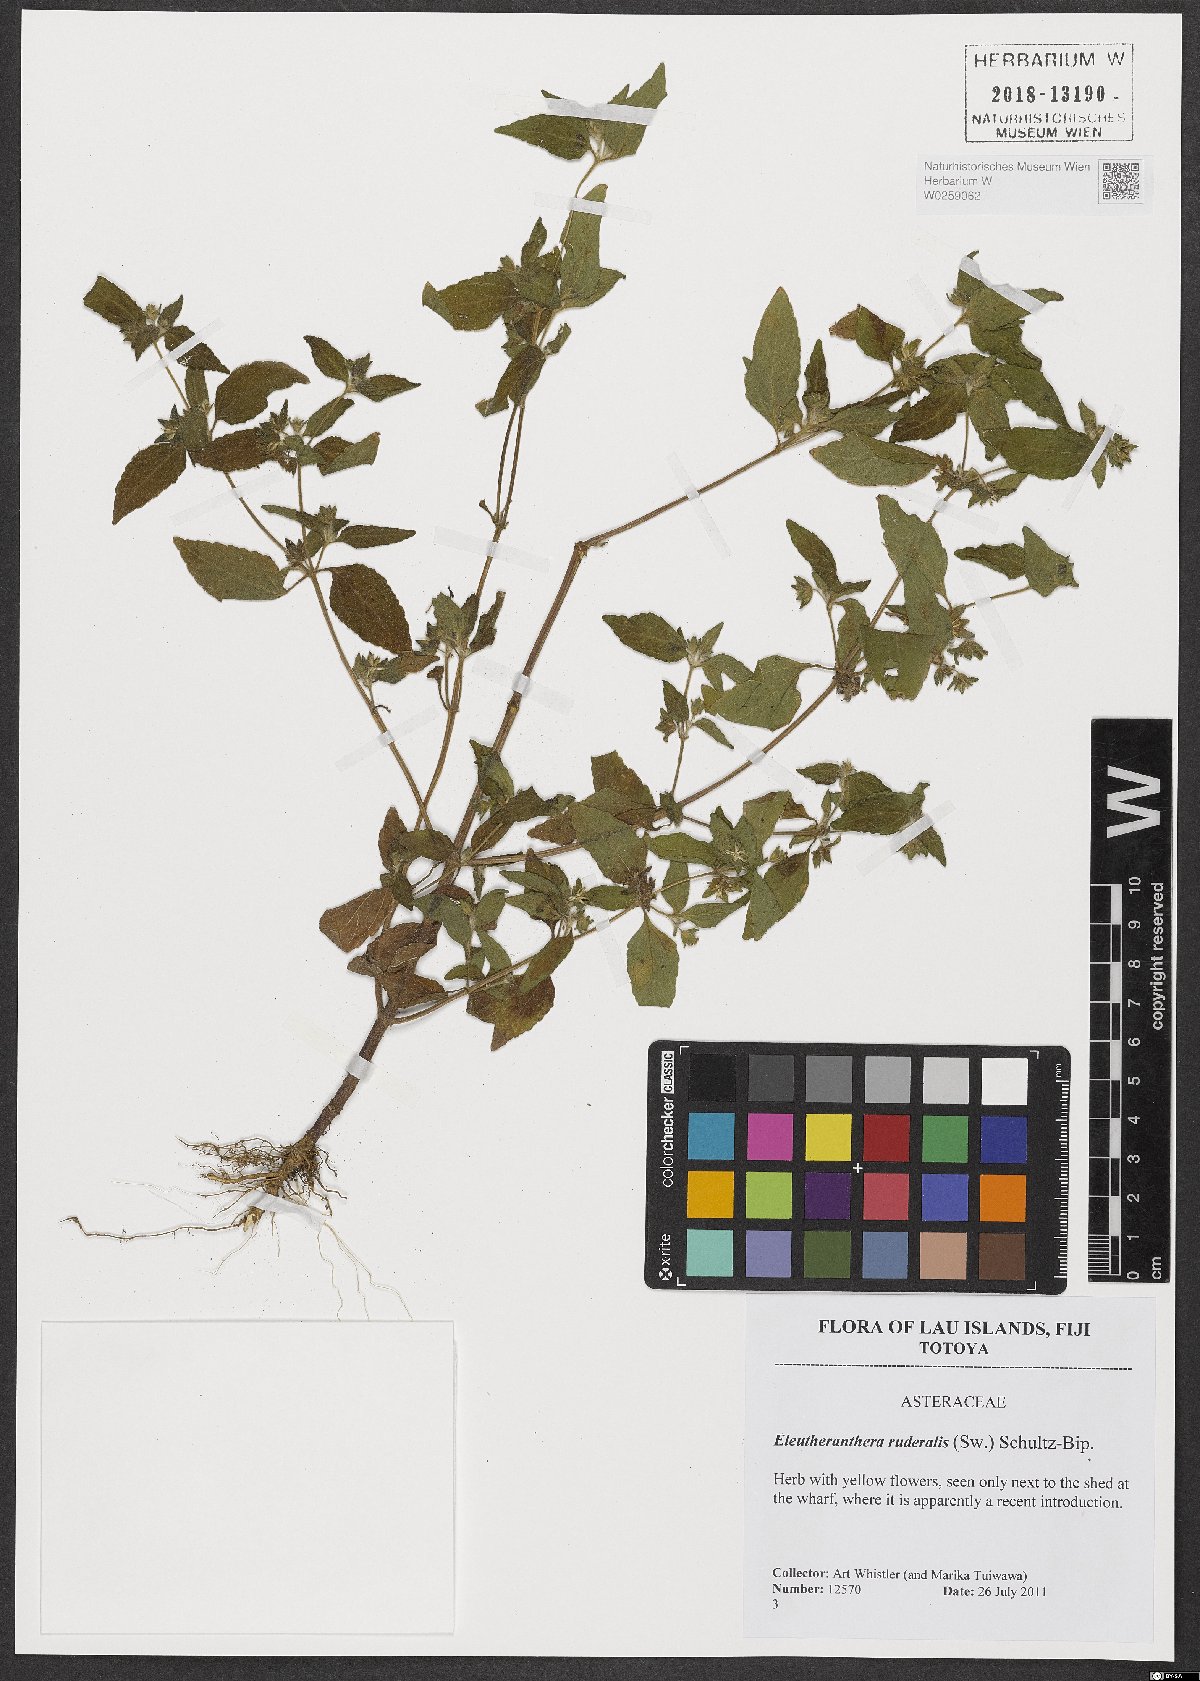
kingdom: Plantae
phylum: Tracheophyta
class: Magnoliopsida
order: Asterales
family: Asteraceae
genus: Eleutheranthera
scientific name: Eleutheranthera ruderalis
